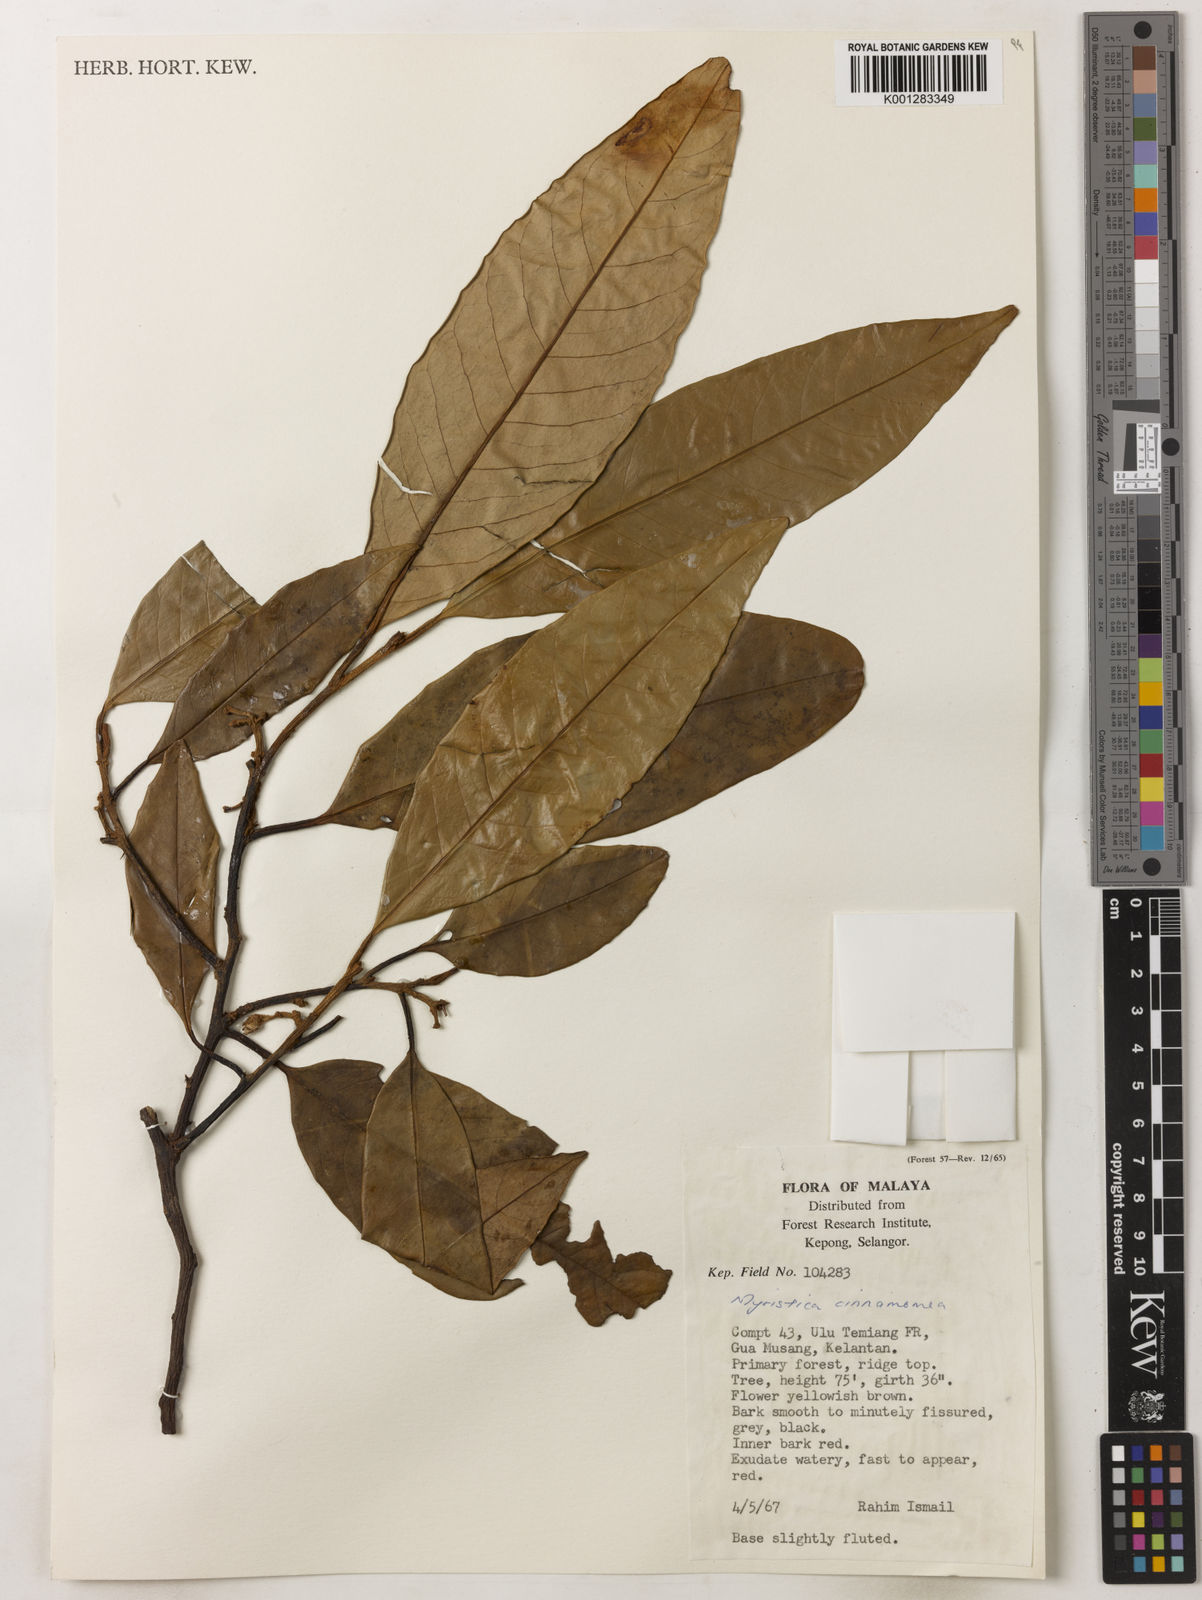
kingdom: Plantae
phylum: Tracheophyta
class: Magnoliopsida
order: Magnoliales
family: Myristicaceae
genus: Myristica
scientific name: Myristica cinnamomea
